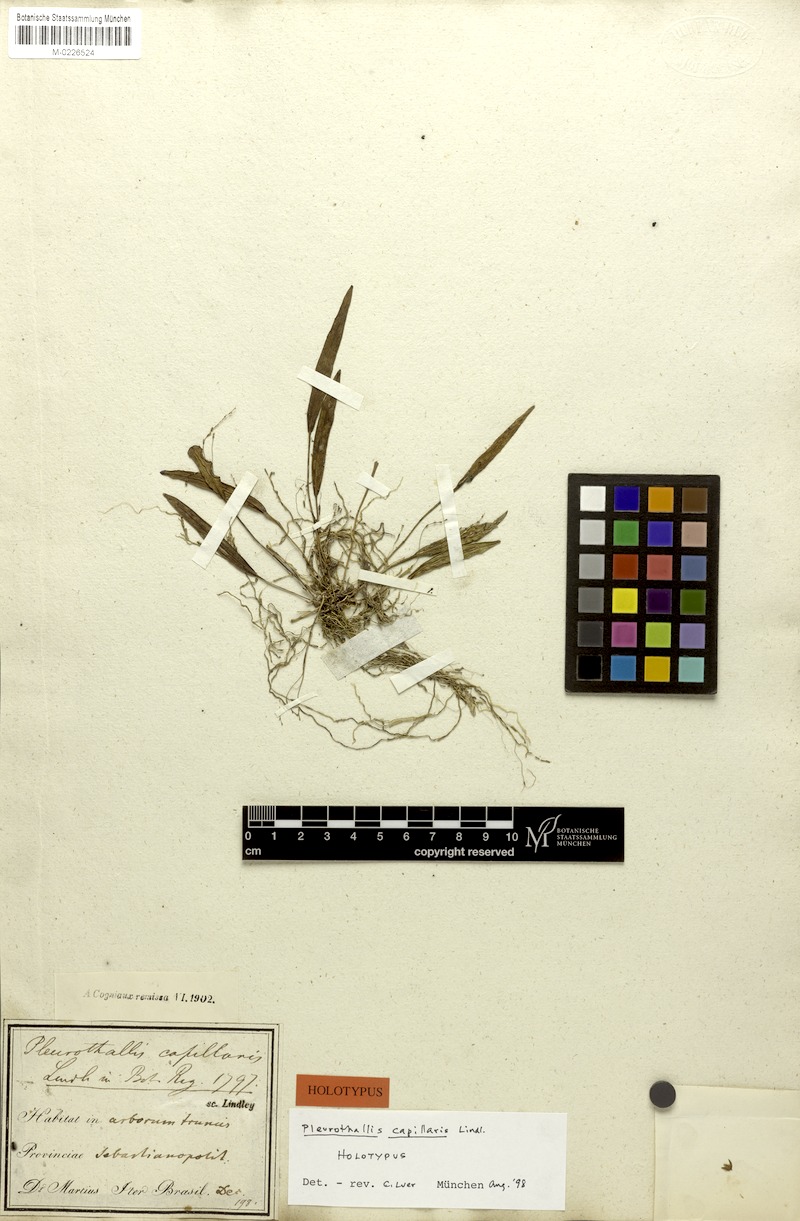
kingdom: Plantae
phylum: Tracheophyta
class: Liliopsida
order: Asparagales
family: Orchidaceae
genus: Acianthera
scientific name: Acianthera capillaris
